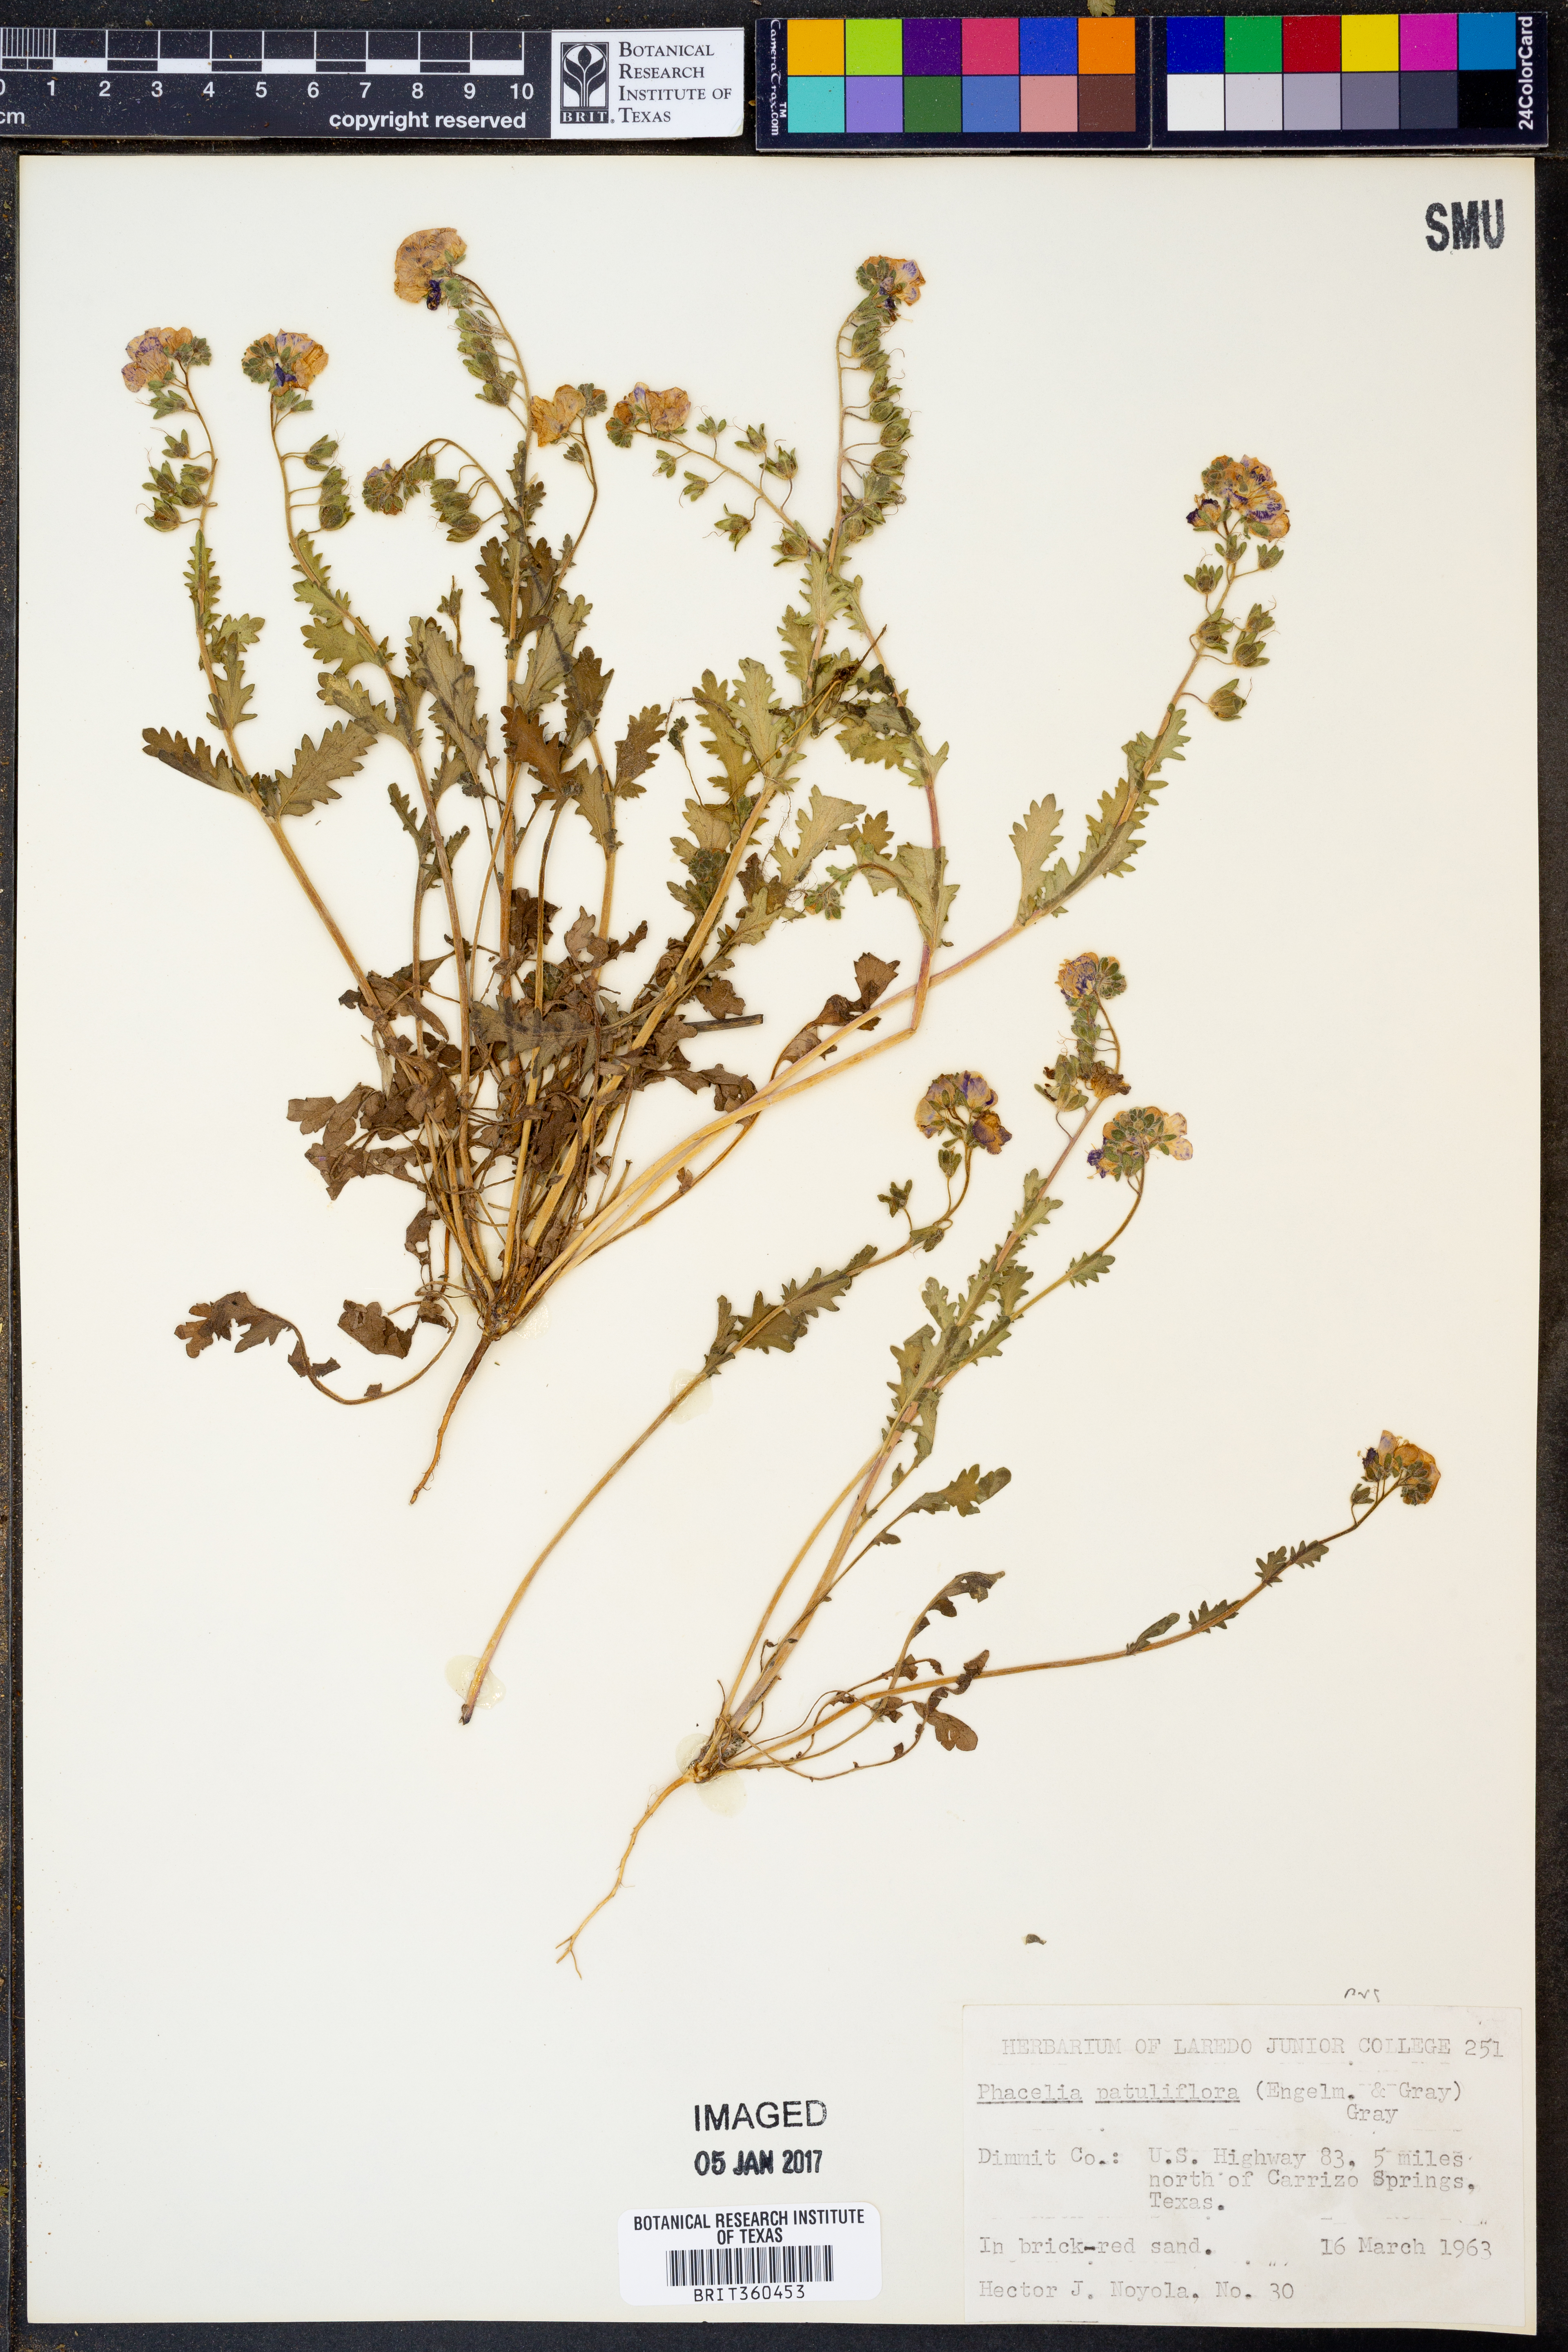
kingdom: Plantae
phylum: Tracheophyta
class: Magnoliopsida
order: Boraginales
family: Hydrophyllaceae
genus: Phacelia
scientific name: Phacelia patuliflora
